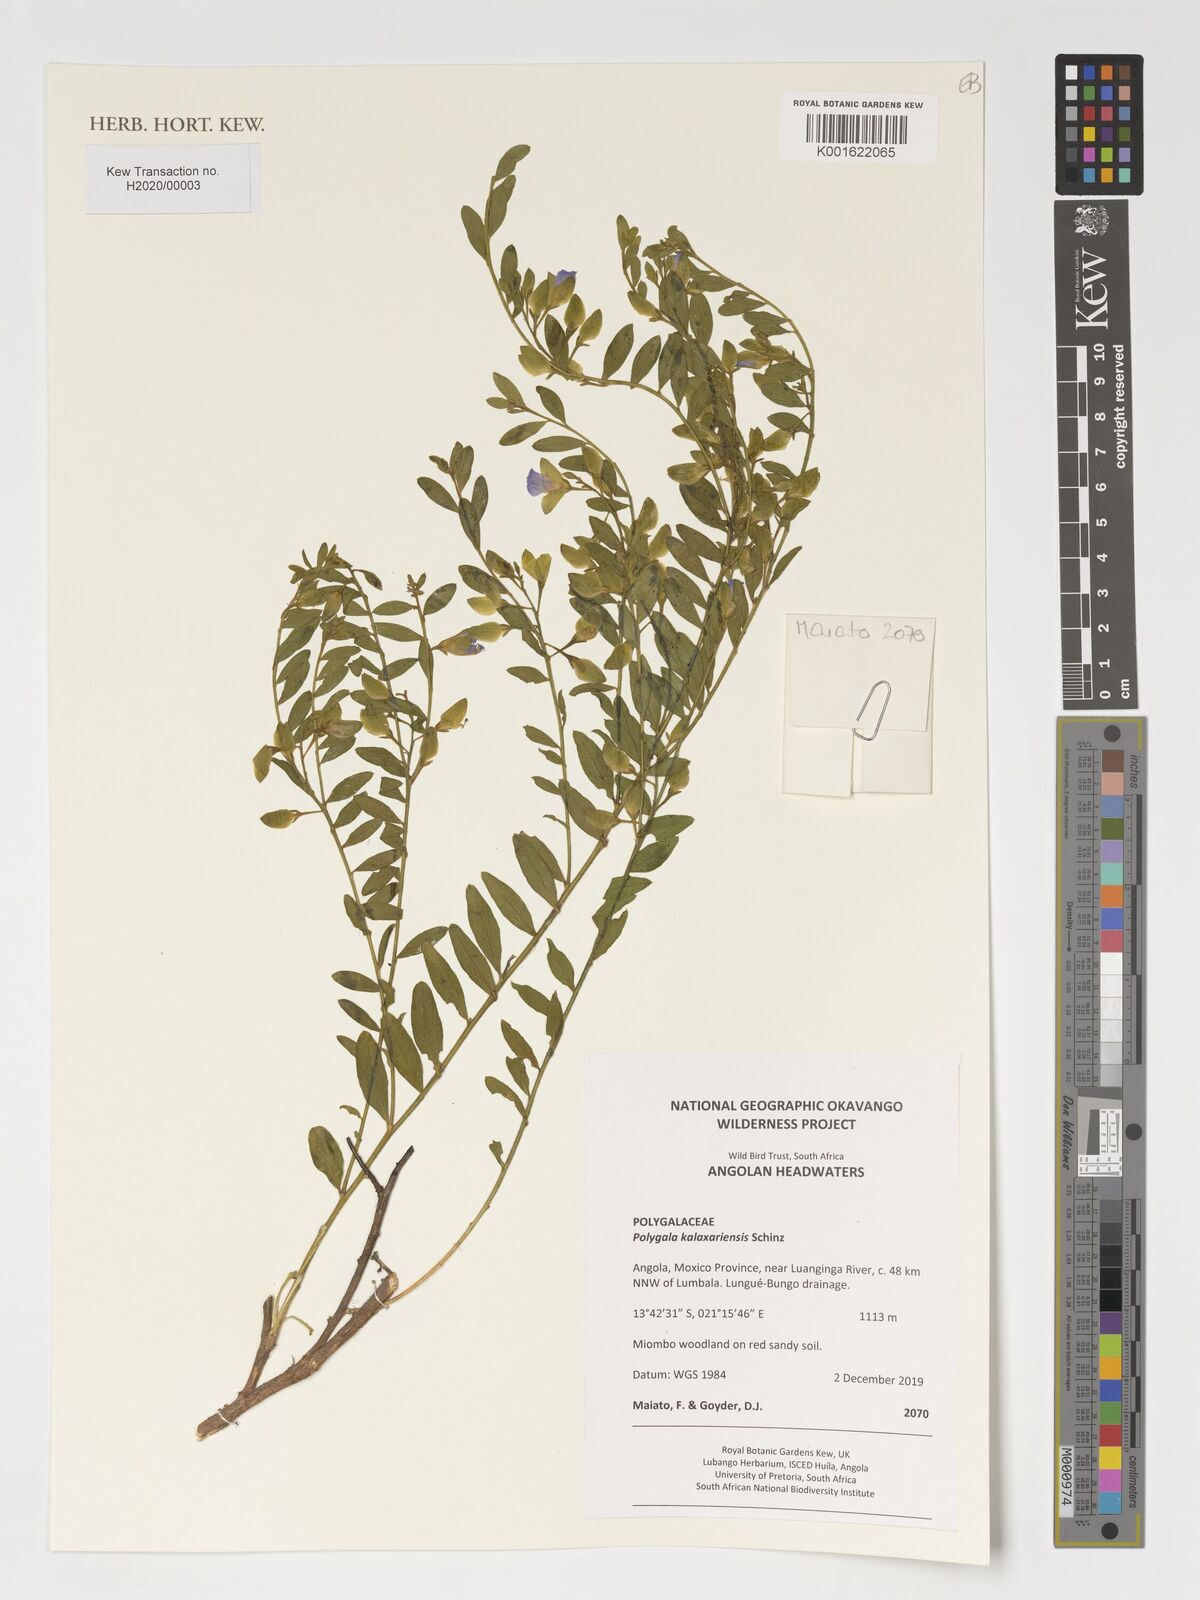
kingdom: Plantae
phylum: Tracheophyta
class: Magnoliopsida
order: Fabales
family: Polygalaceae
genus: Polygala
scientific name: Polygala kalaxariensis
